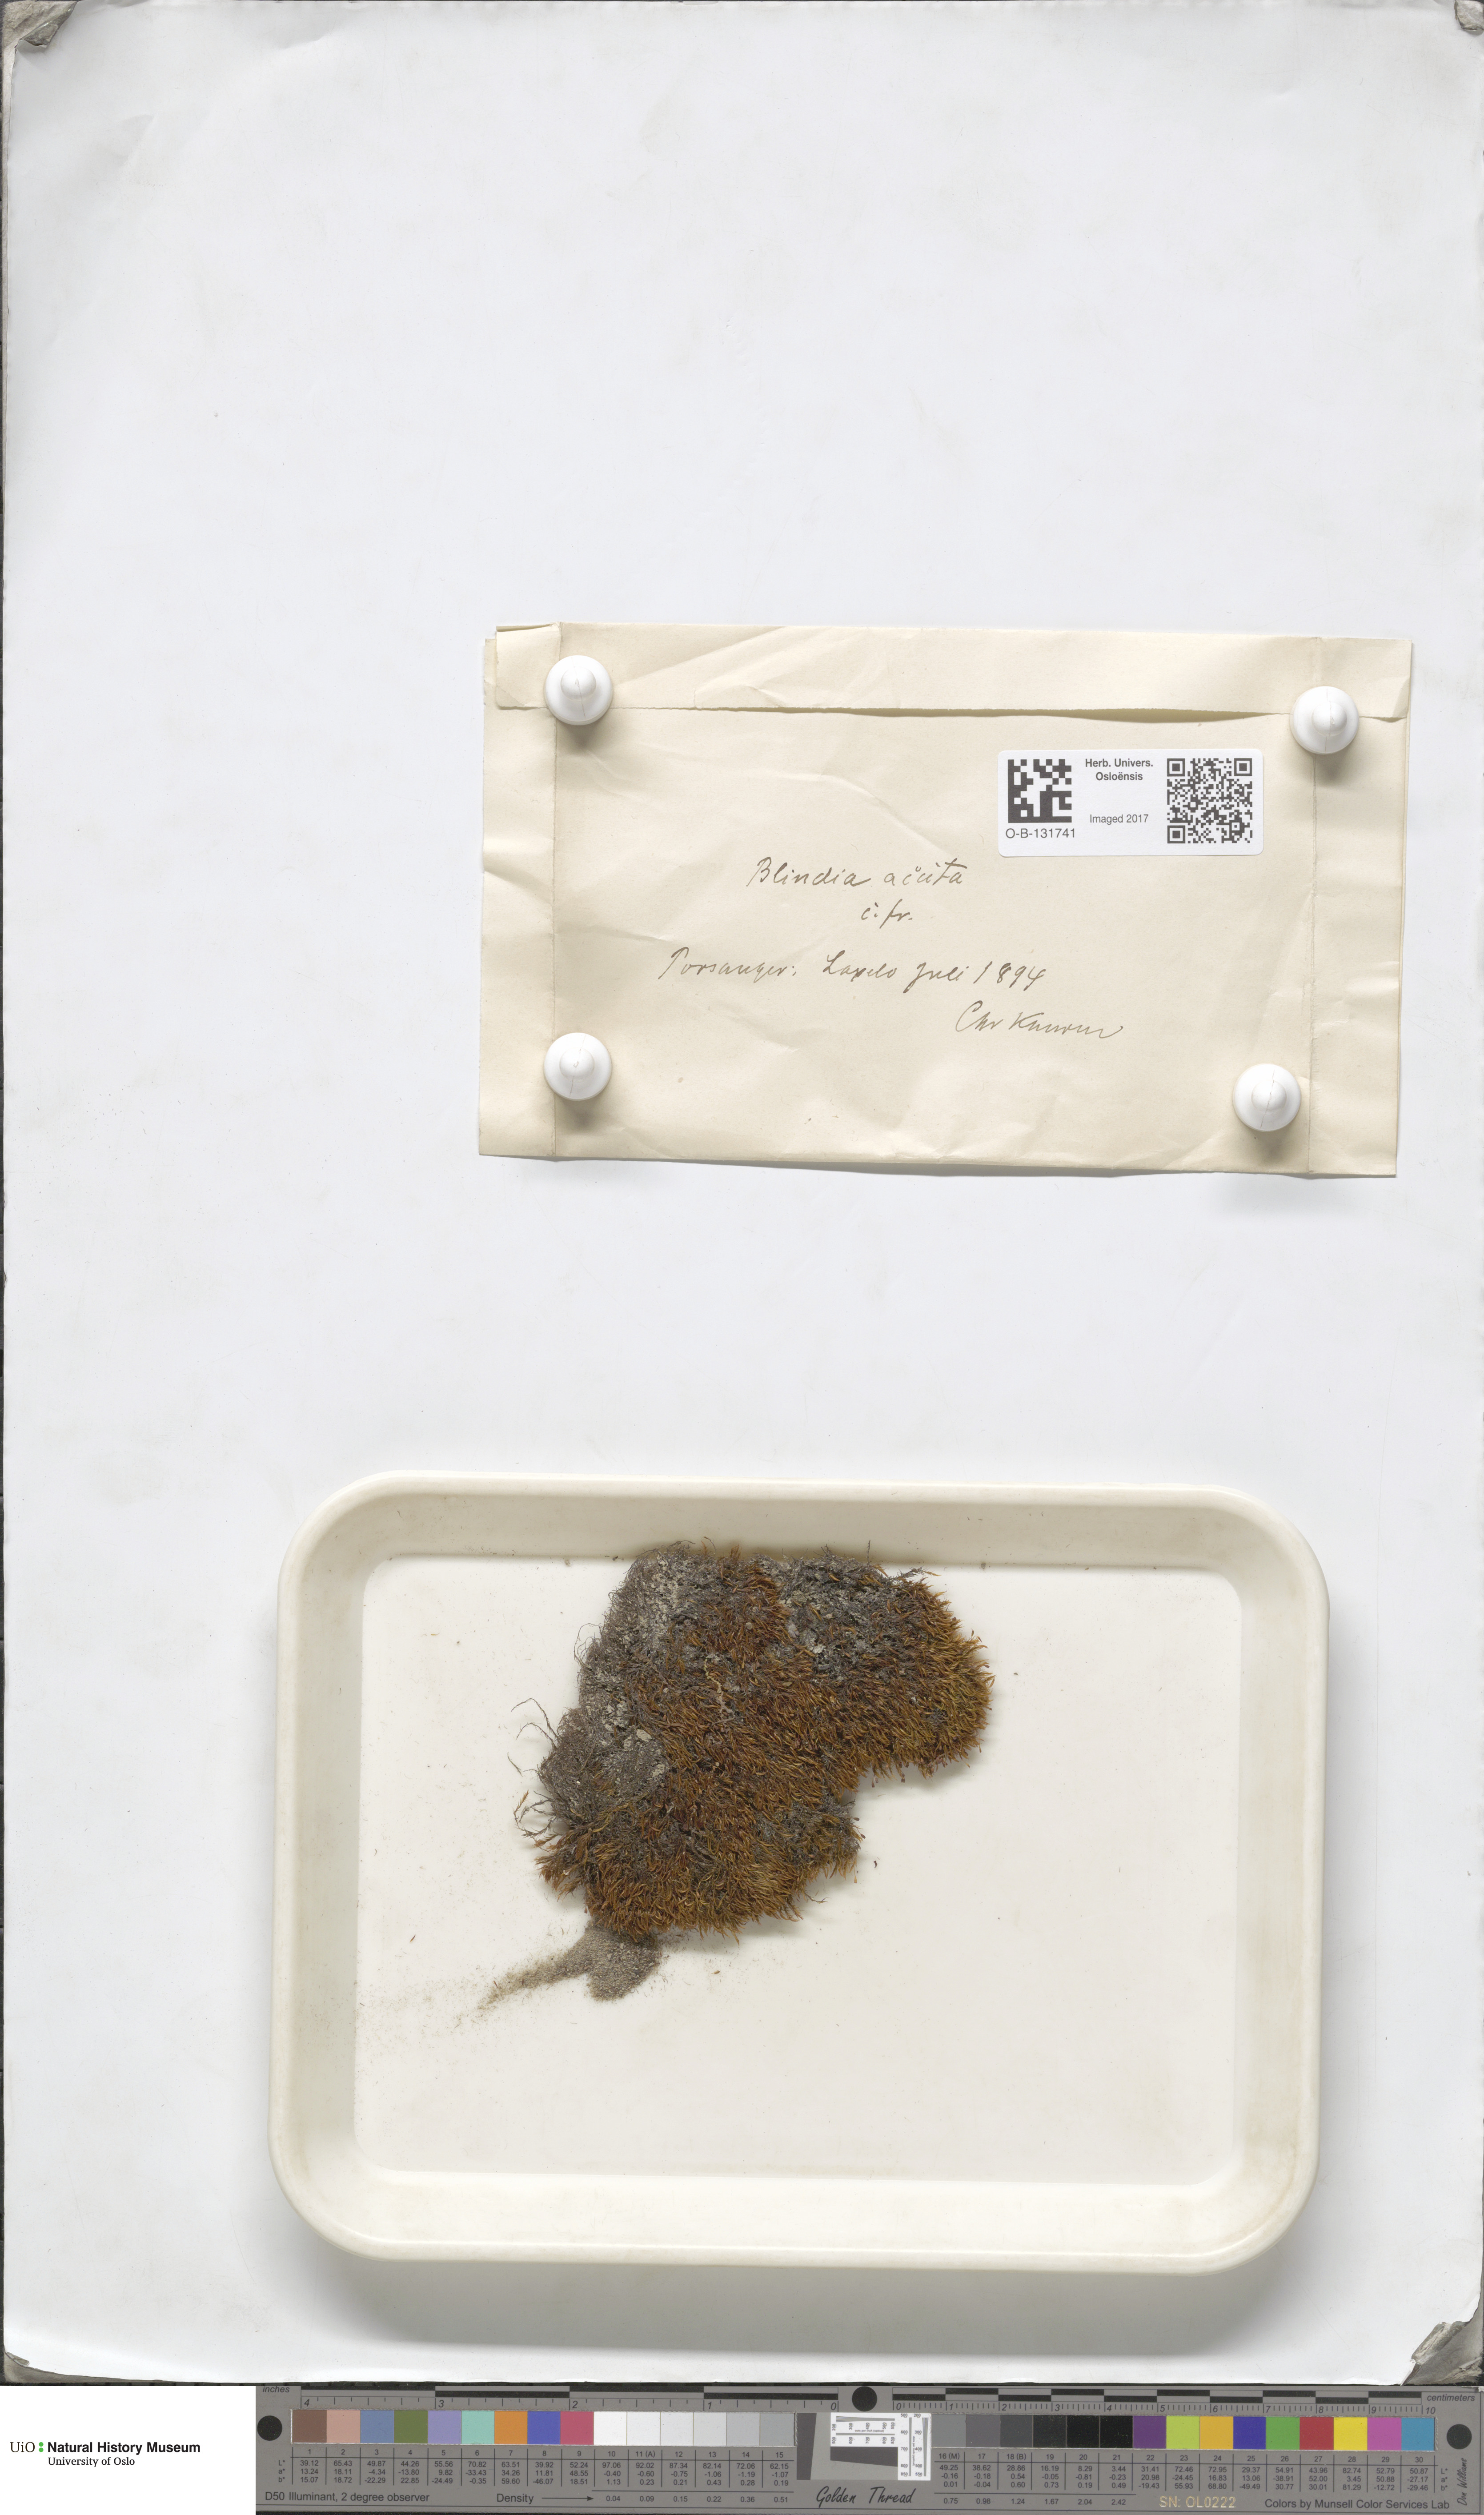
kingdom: Plantae
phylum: Bryophyta
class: Bryopsida
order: Grimmiales
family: Seligeriaceae
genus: Blindia
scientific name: Blindia acuta
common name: Sharp-leaved blind's moss
